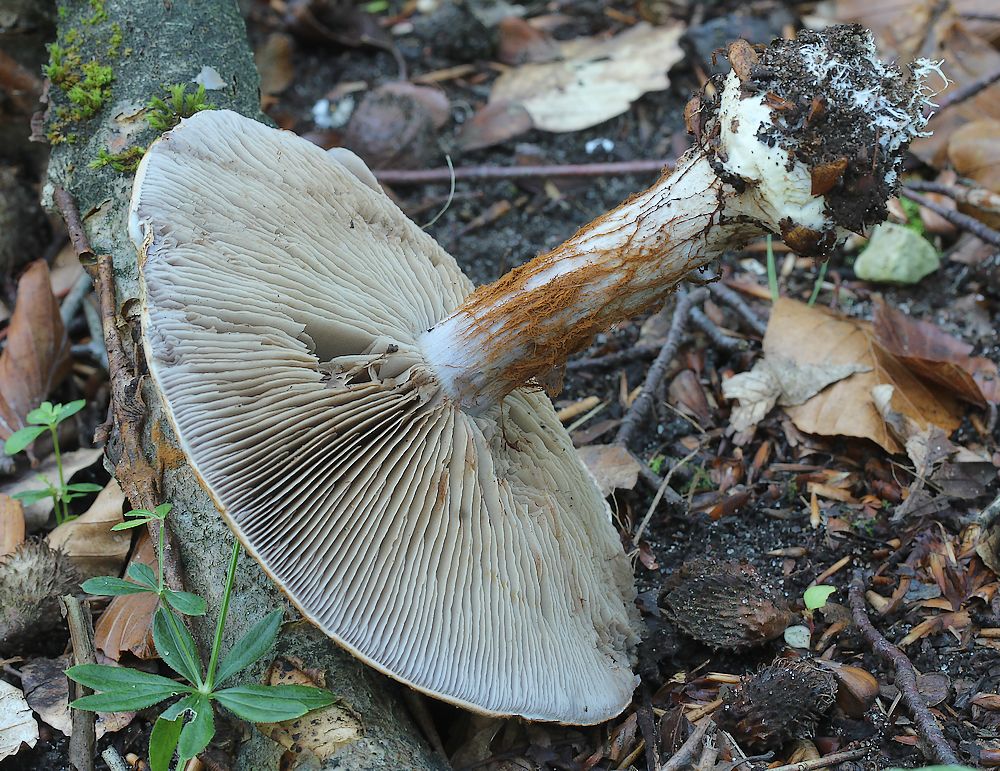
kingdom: Fungi
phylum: Basidiomycota
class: Agaricomycetes
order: Agaricales
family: Cortinariaceae
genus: Cortinarius
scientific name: Cortinarius anserinus
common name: bøge-slørhat
